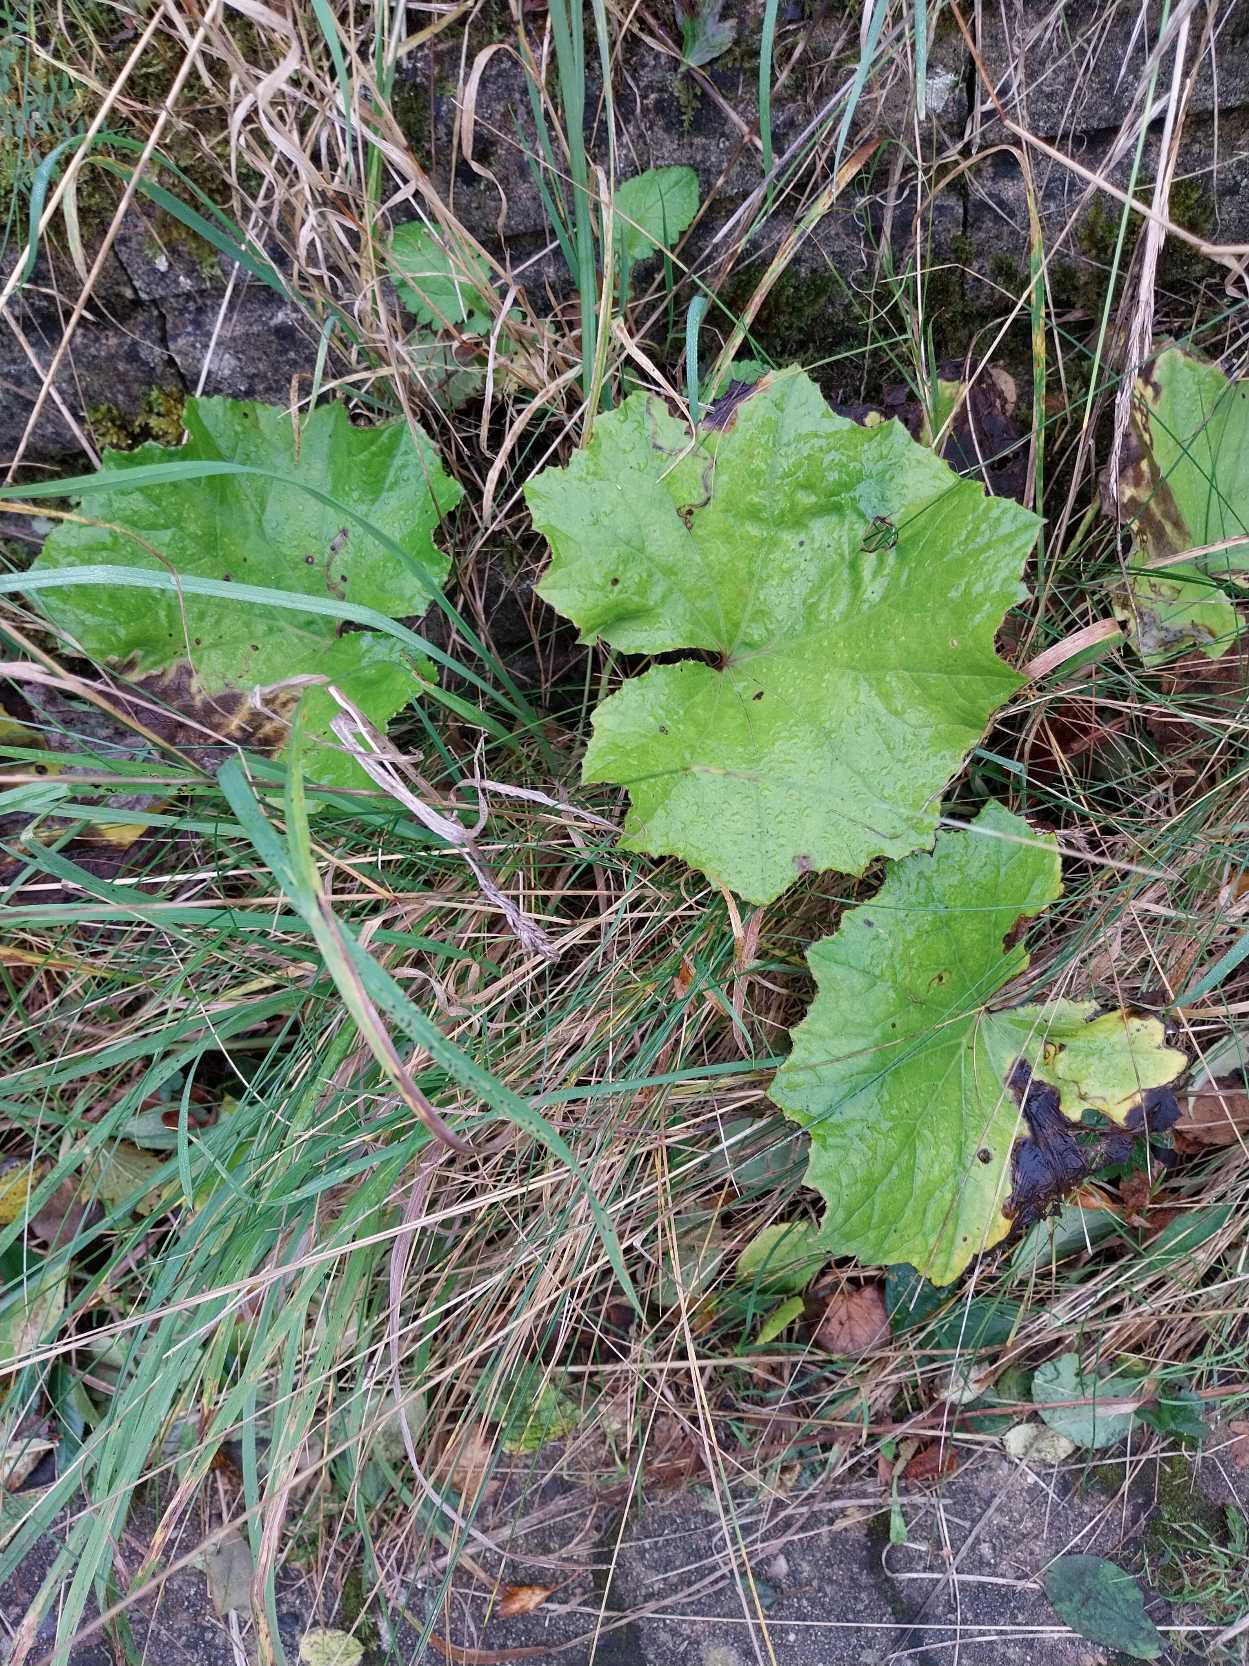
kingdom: Plantae
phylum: Tracheophyta
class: Magnoliopsida
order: Asterales
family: Asteraceae
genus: Tussilago
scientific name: Tussilago farfara
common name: Følfod
